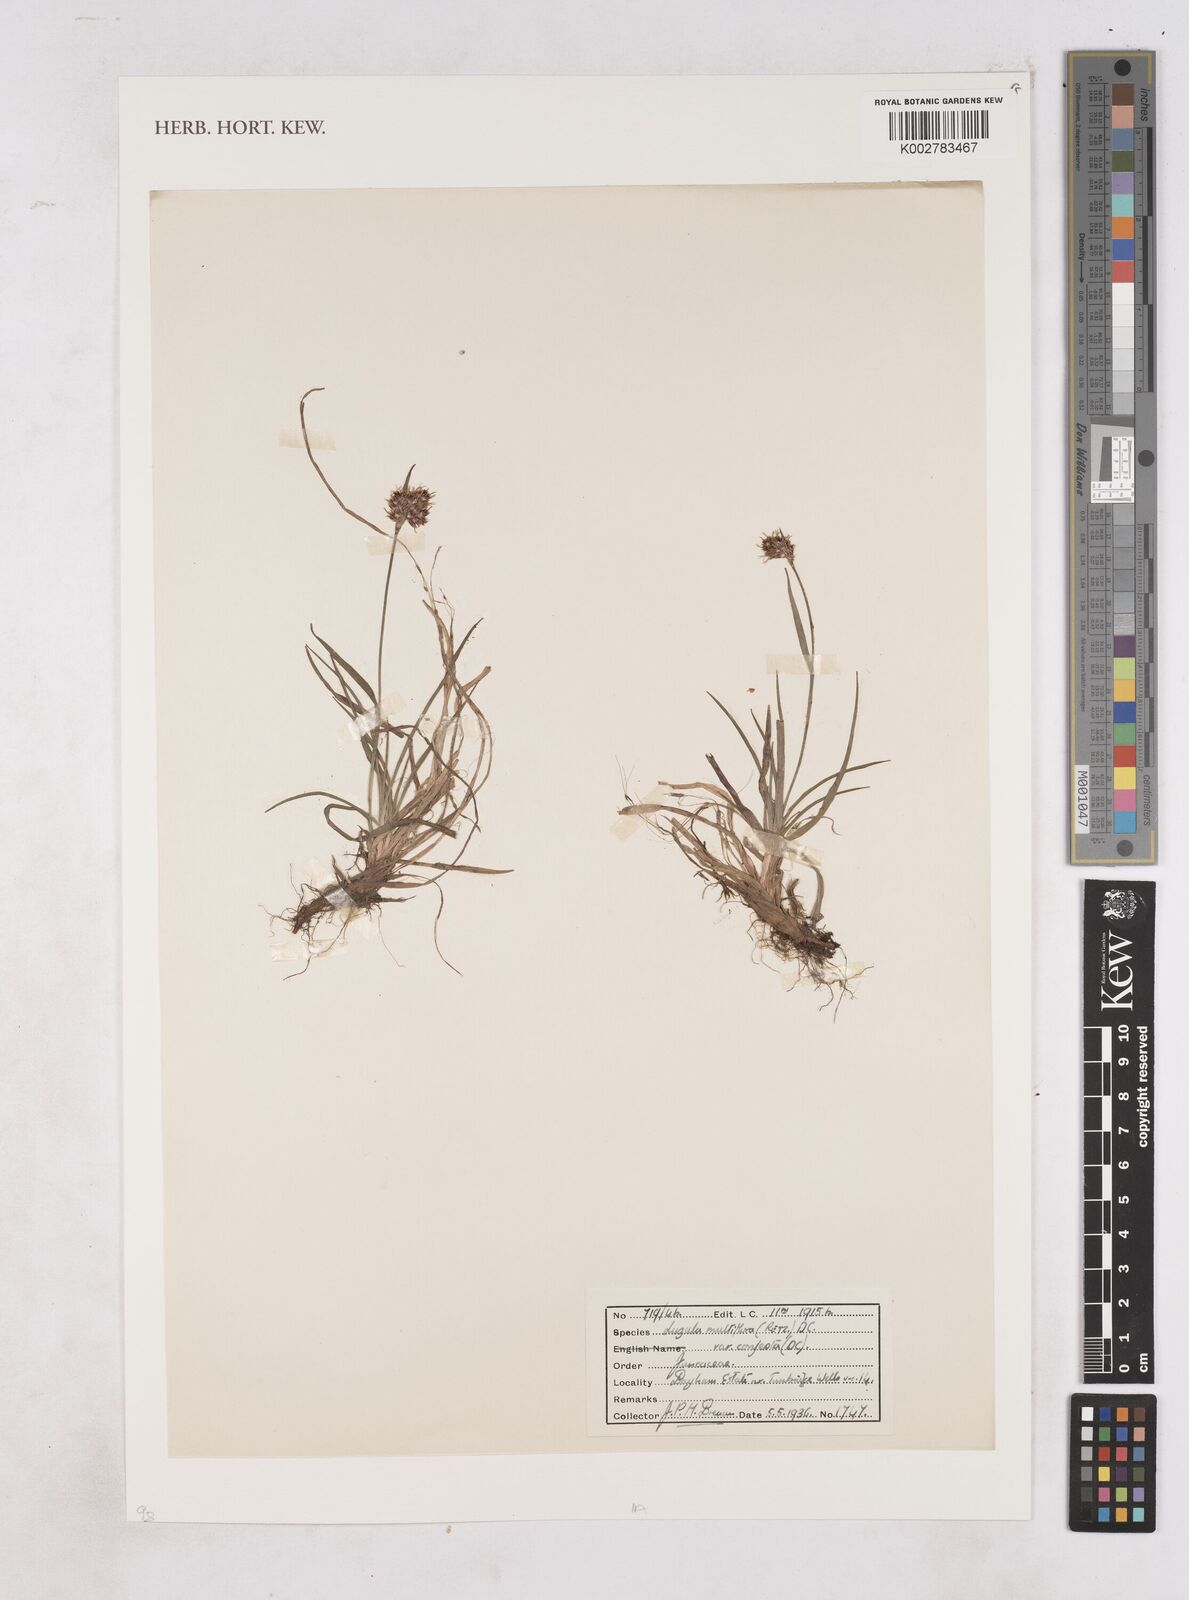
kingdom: Plantae
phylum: Tracheophyta
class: Liliopsida
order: Poales
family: Juncaceae
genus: Luzula
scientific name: Luzula multiflora
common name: Heath wood-rush
